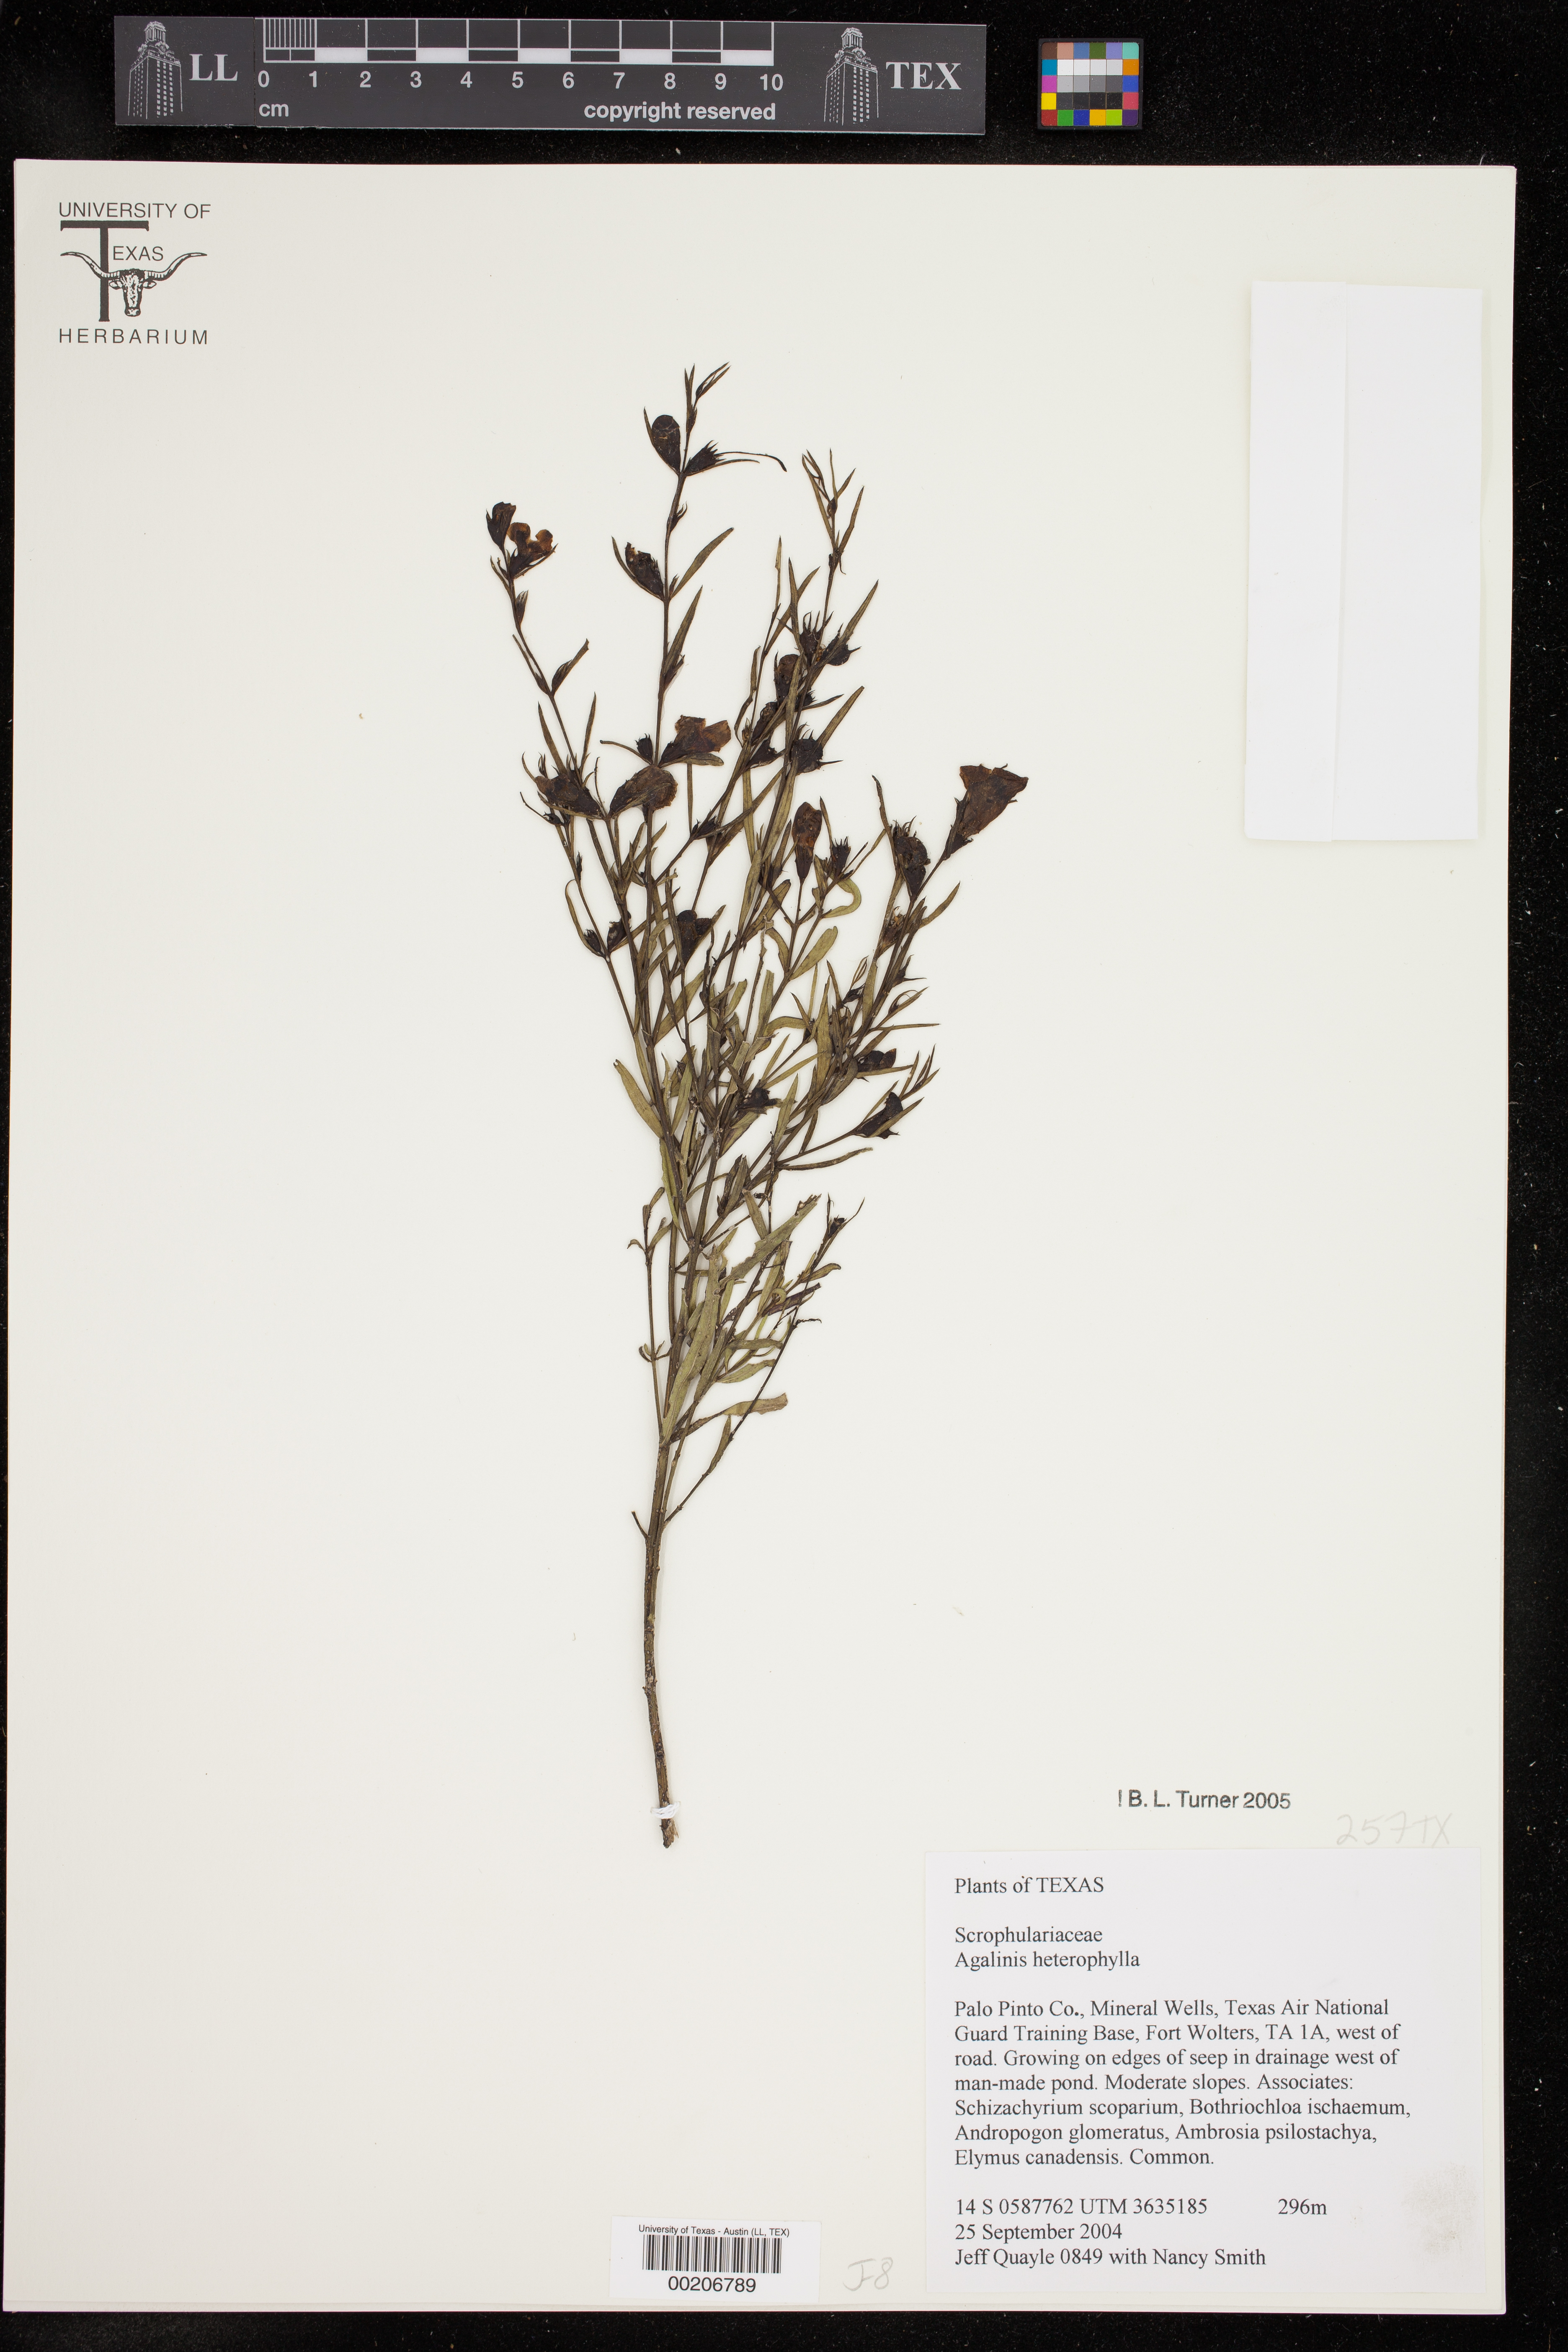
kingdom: Plantae
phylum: Tracheophyta
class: Magnoliopsida
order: Lamiales
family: Orobanchaceae
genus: Agalinis
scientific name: Agalinis heterophylla
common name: Prairie agalinis
